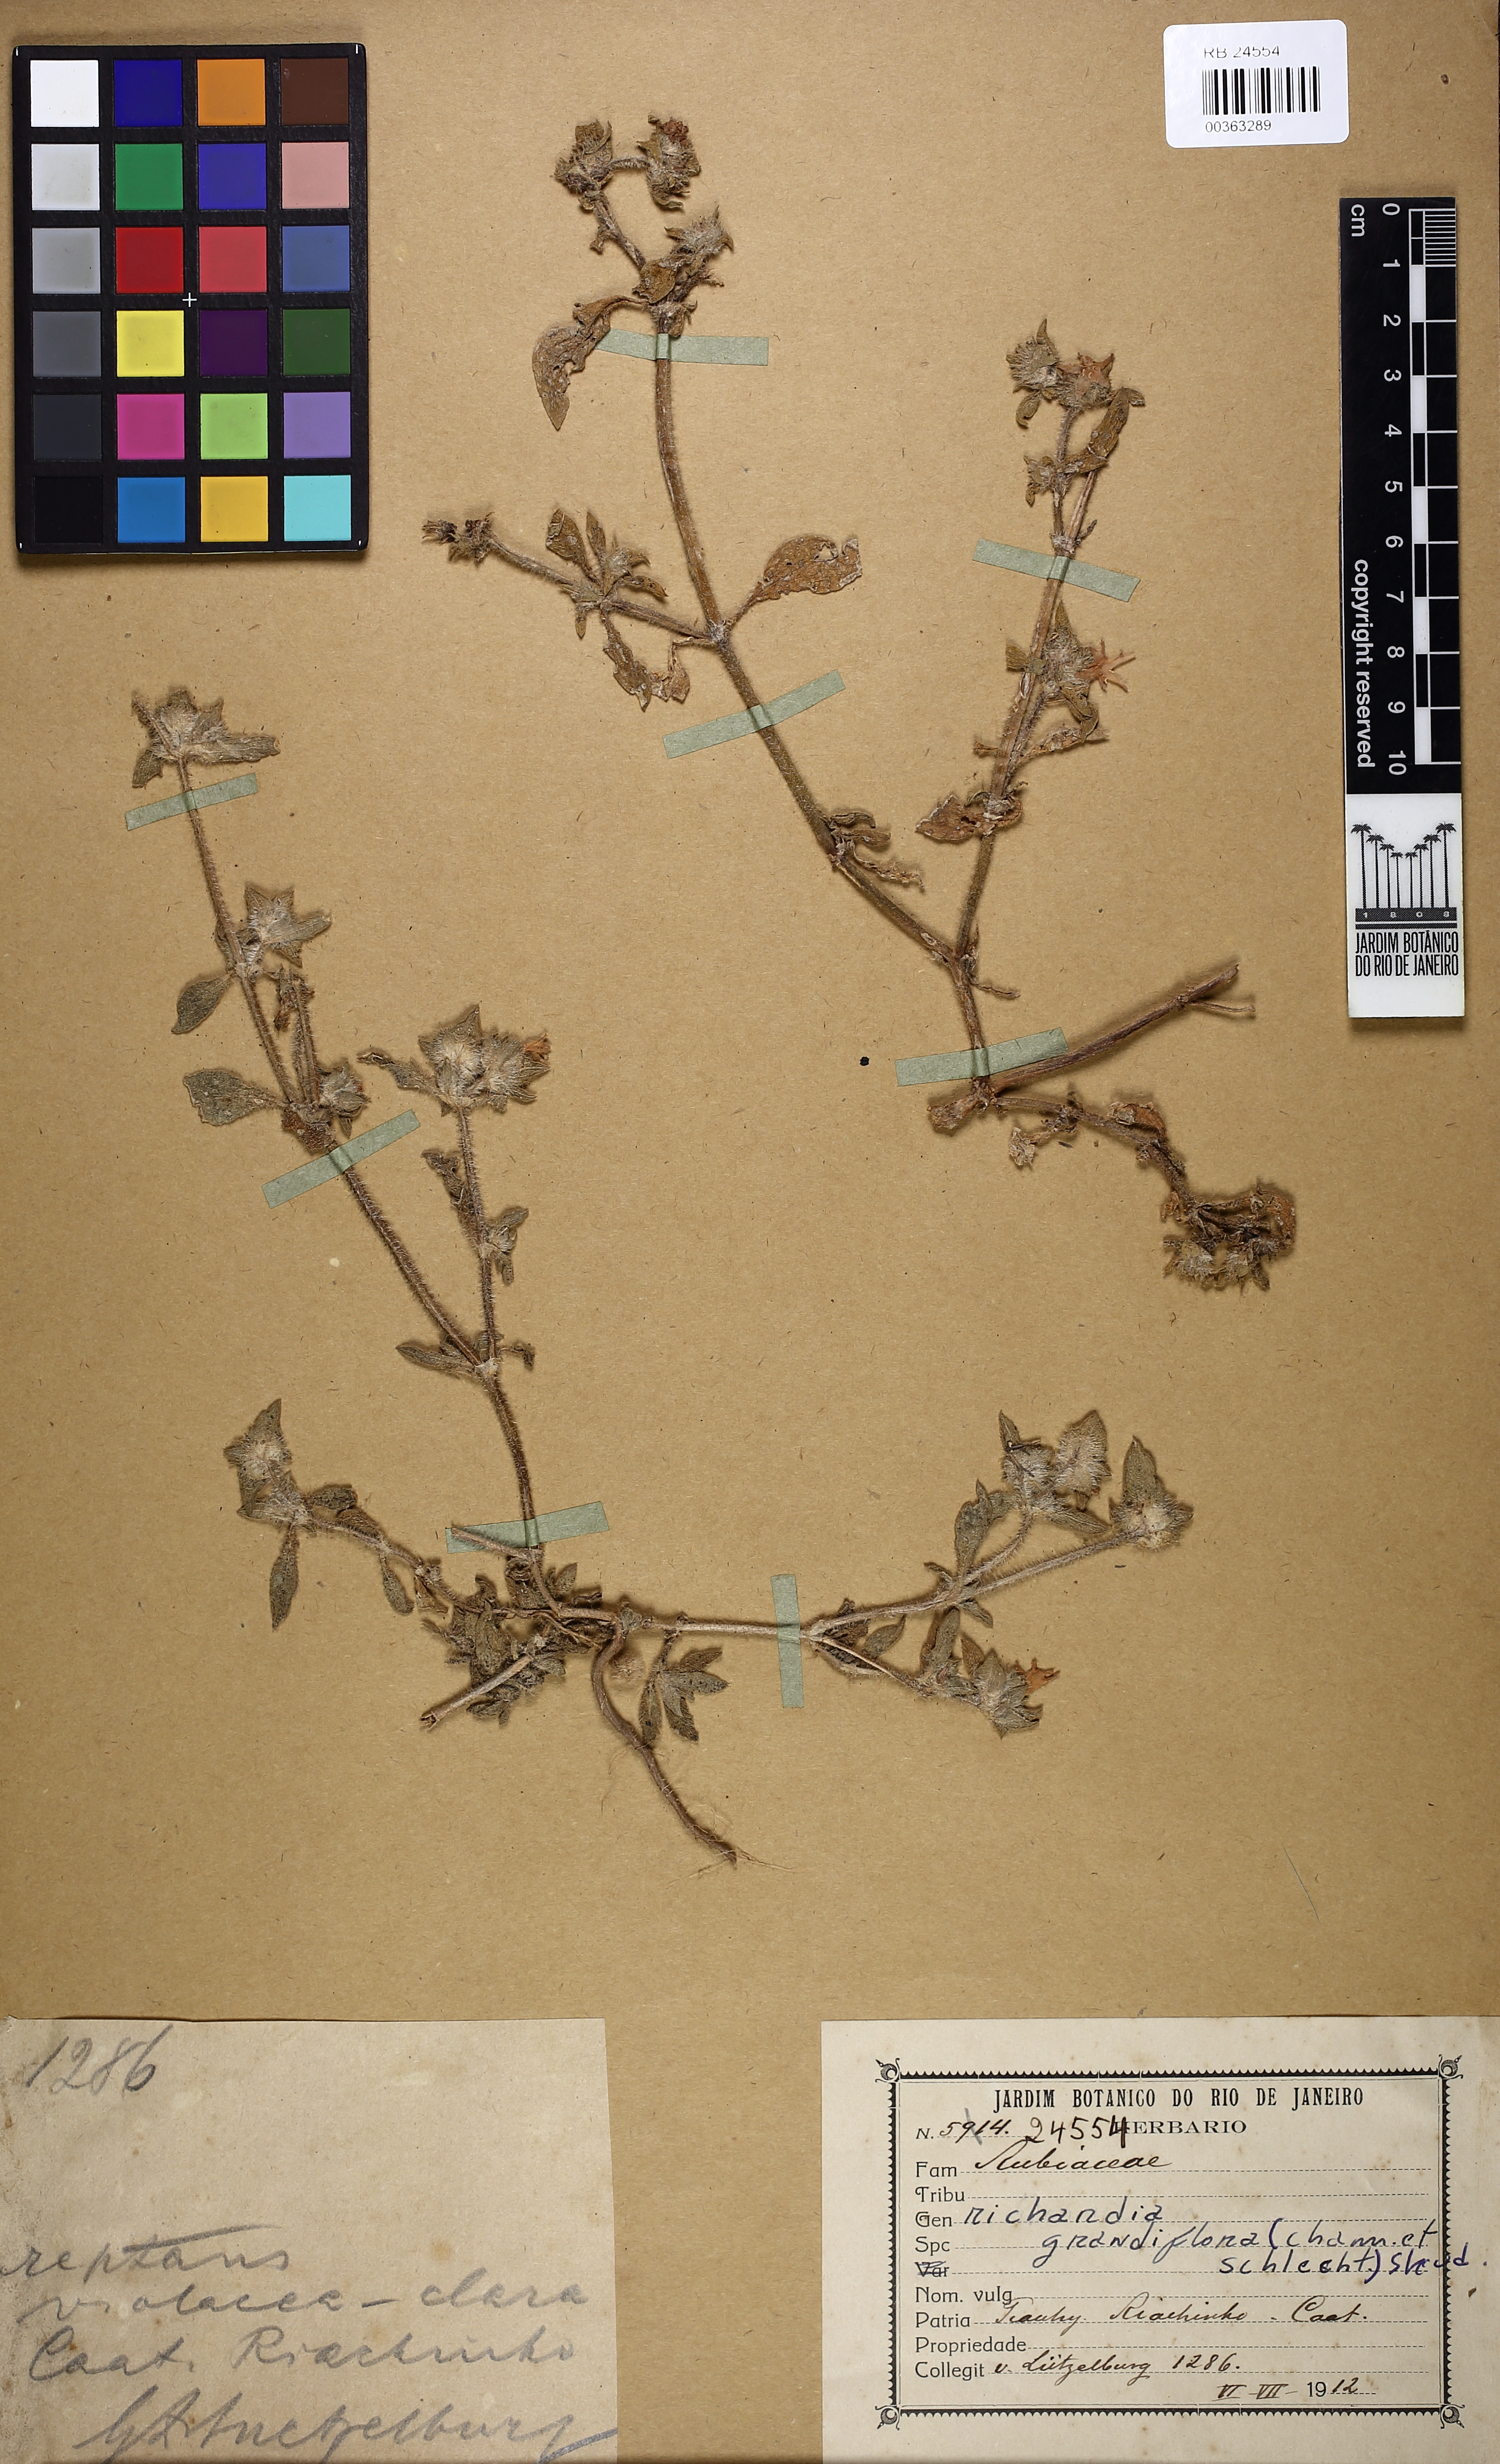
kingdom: Plantae
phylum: Tracheophyta
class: Magnoliopsida
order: Gentianales
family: Rubiaceae
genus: Richardia
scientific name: Richardia grandiflora
